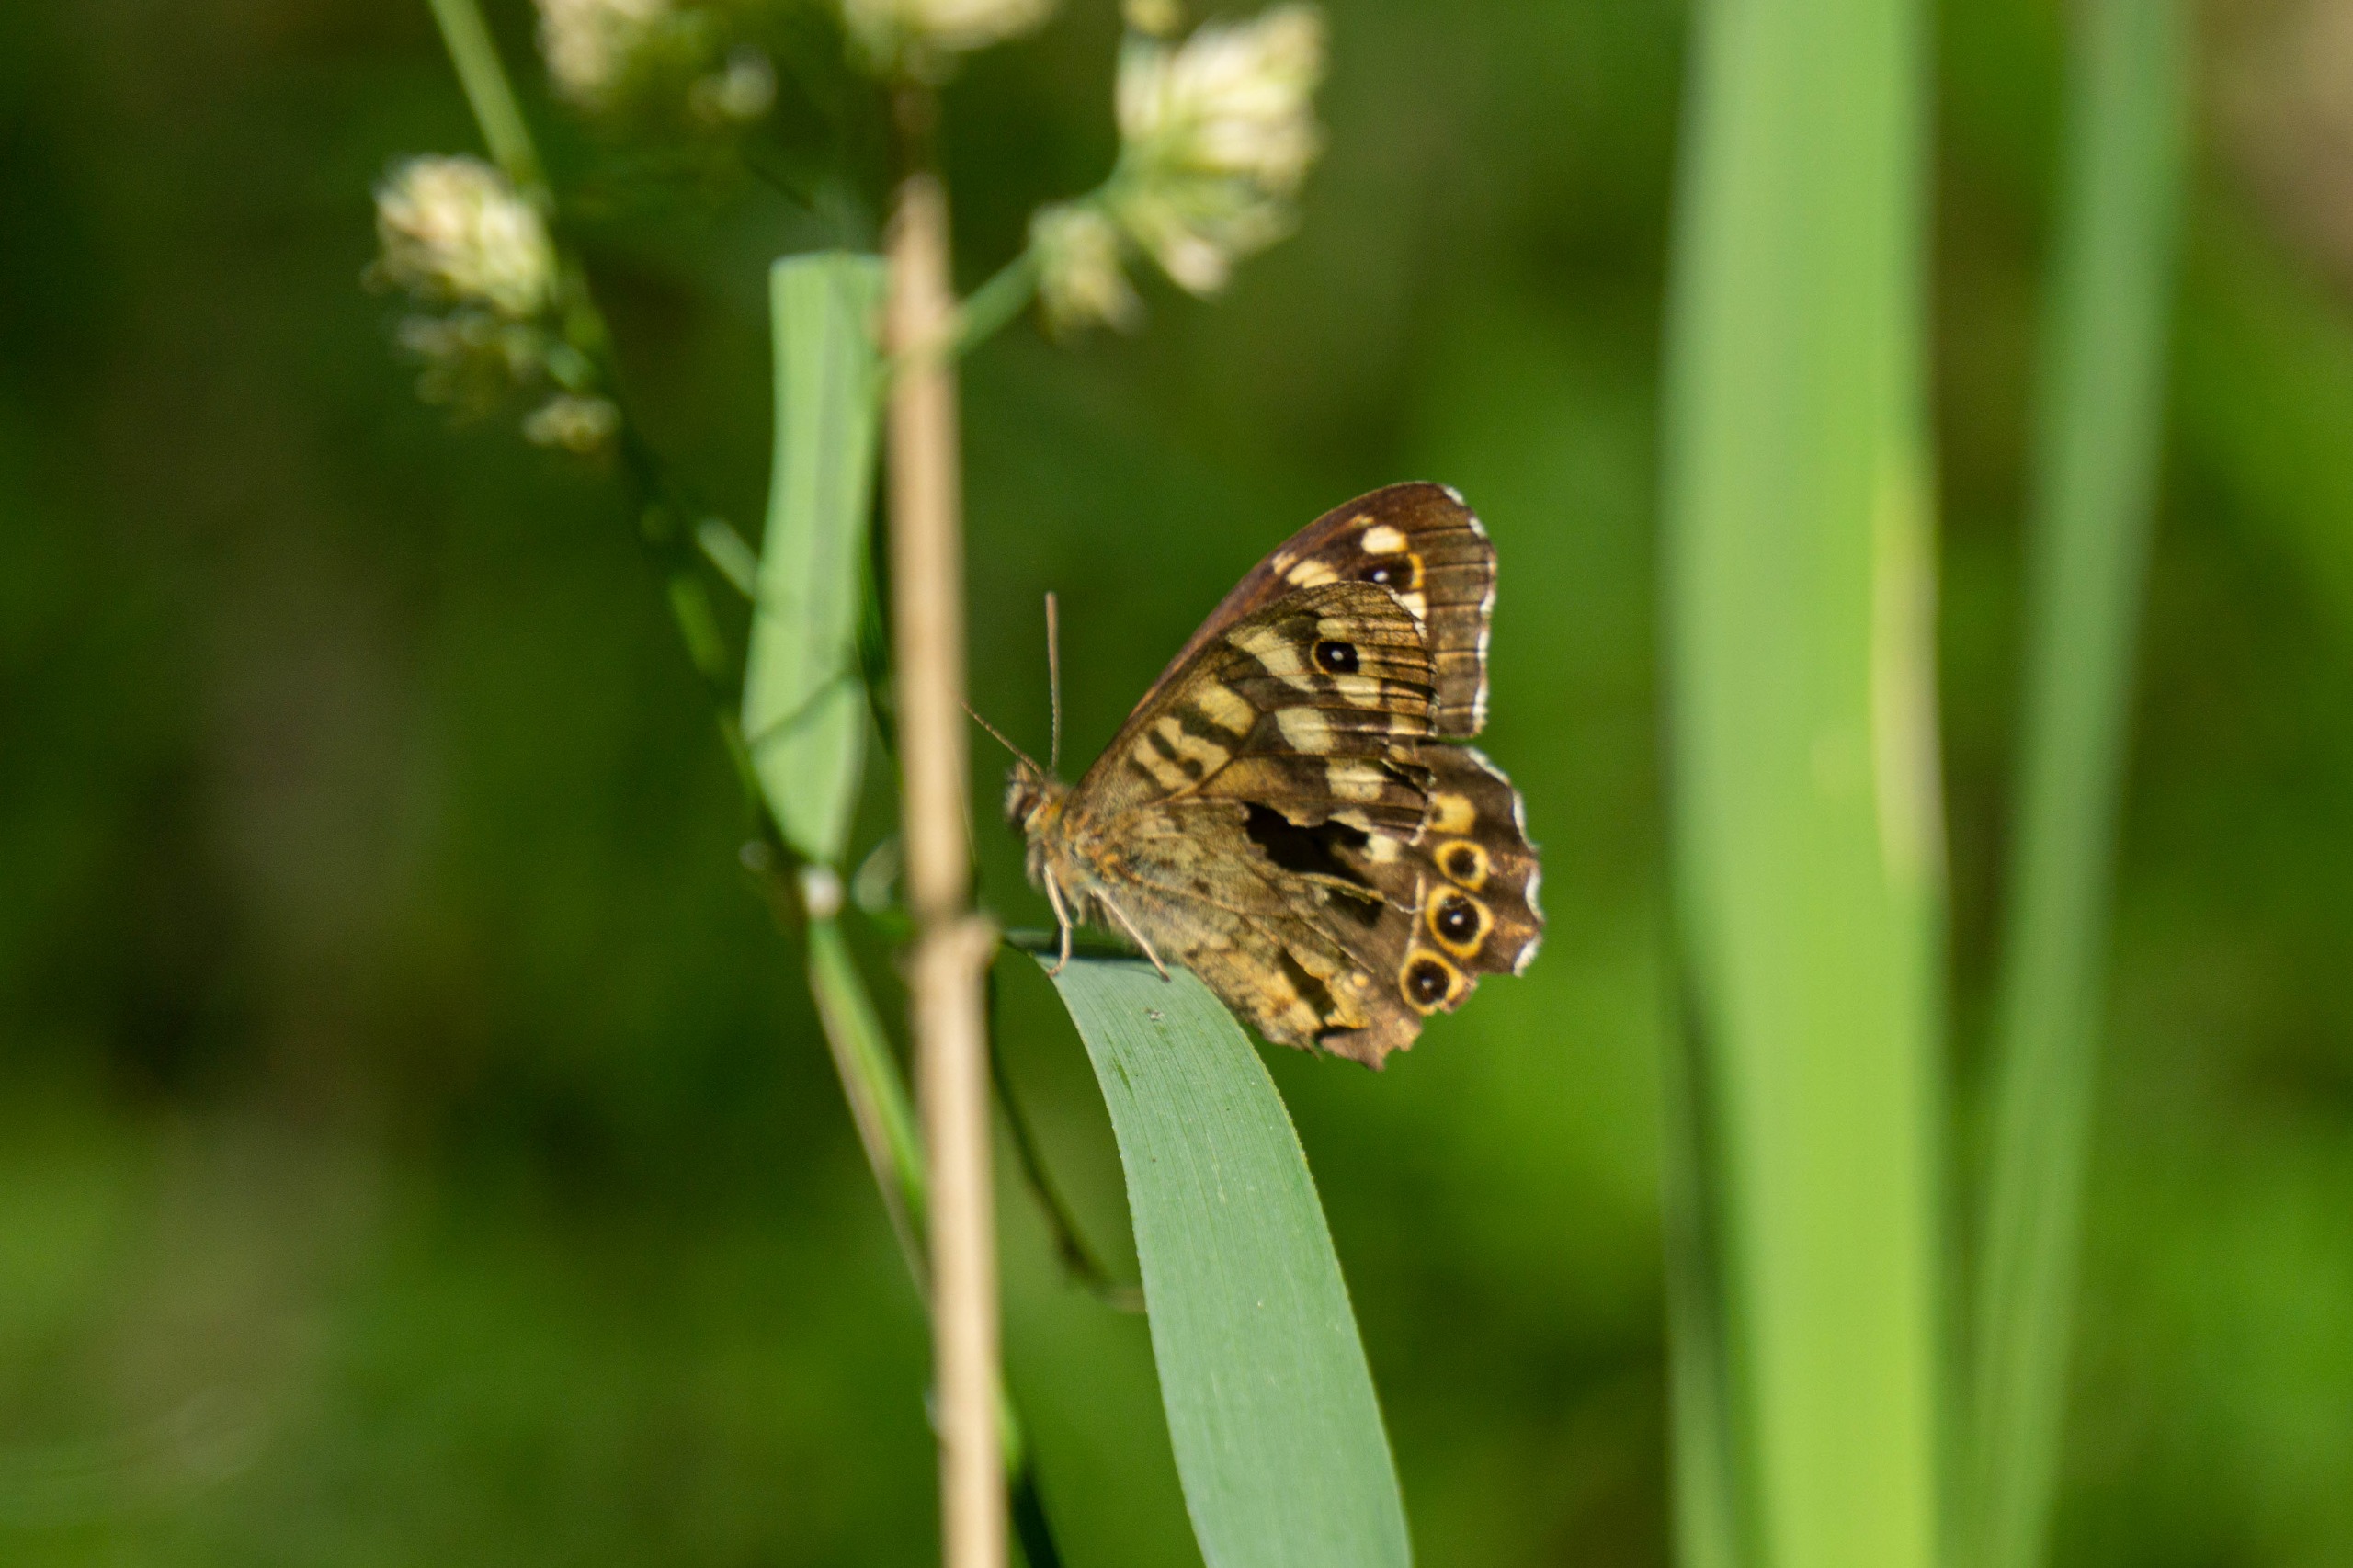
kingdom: Animalia
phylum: Arthropoda
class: Insecta
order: Lepidoptera
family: Nymphalidae
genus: Pararge
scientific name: Pararge aegeria
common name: Skovrandøje
